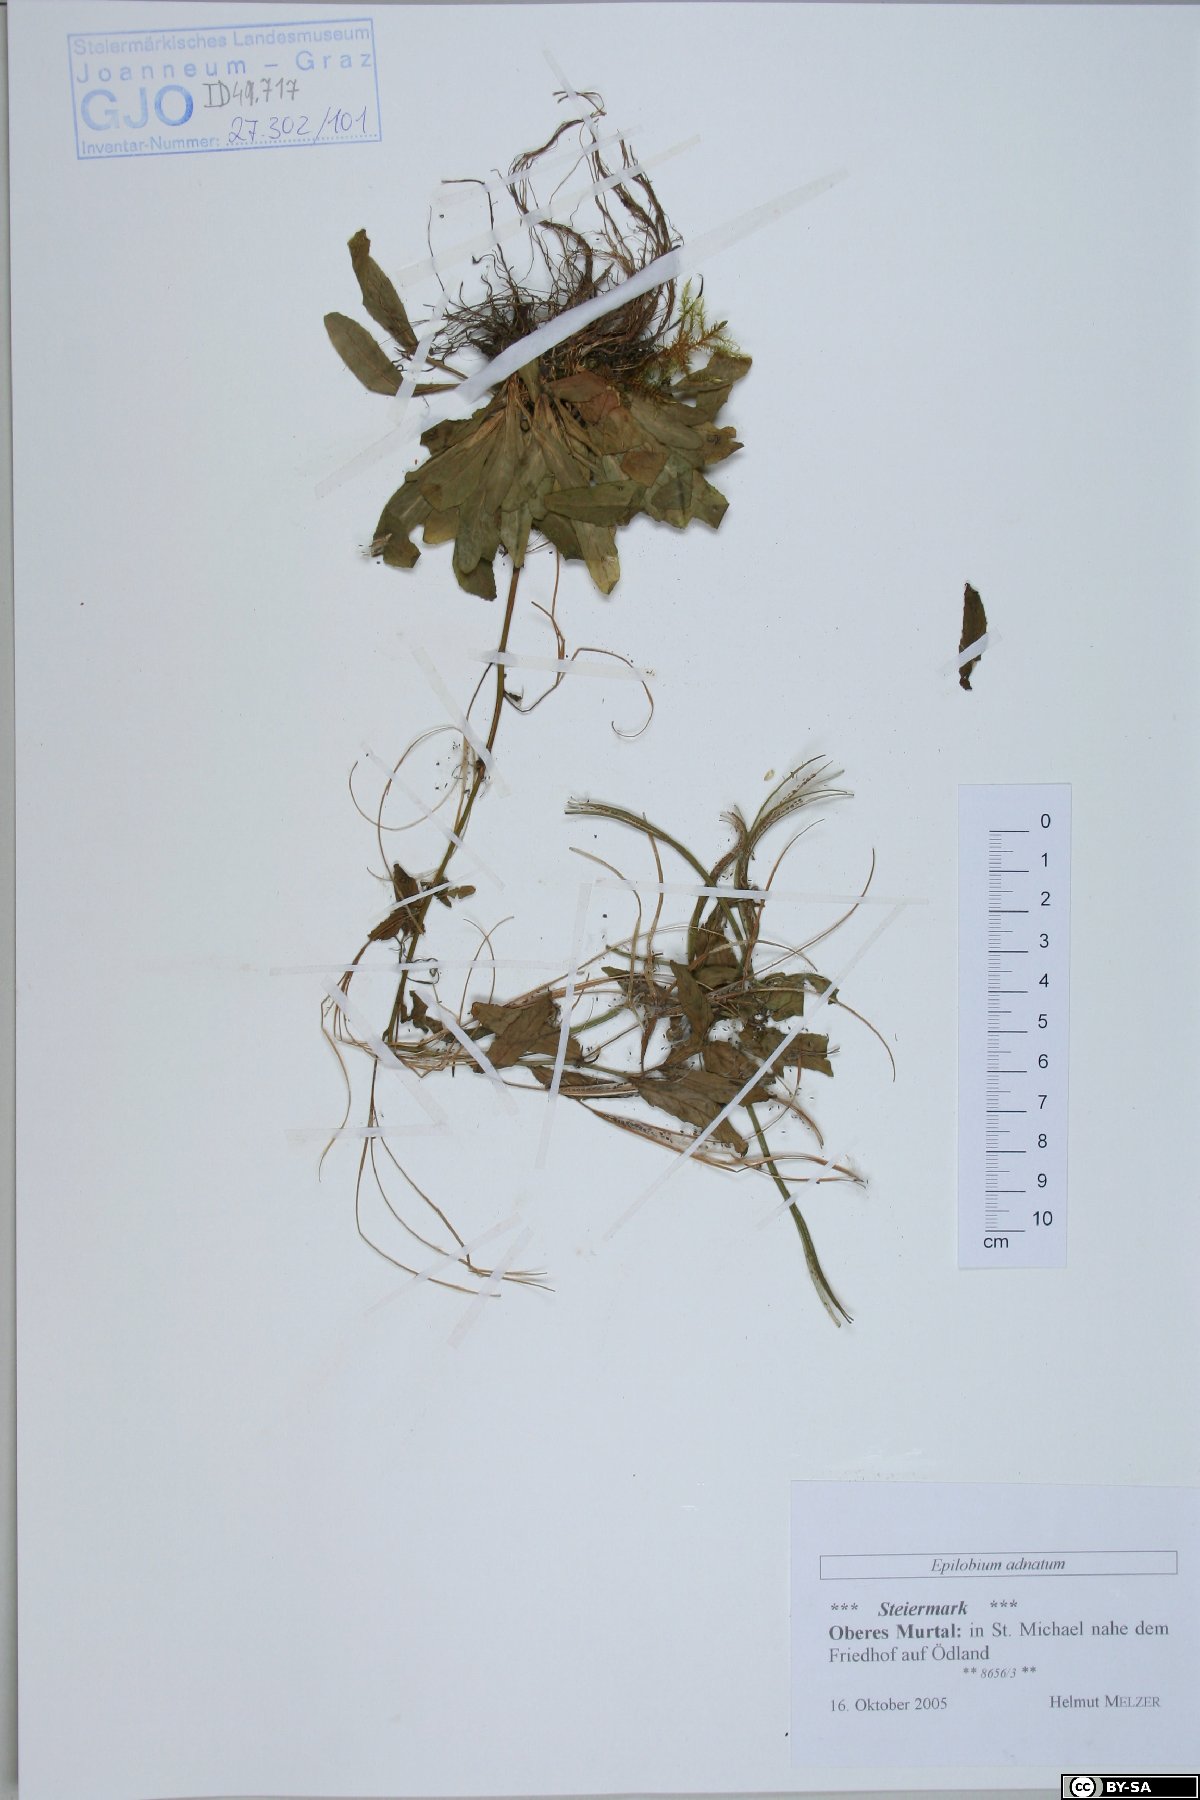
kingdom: Plantae
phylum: Tracheophyta
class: Magnoliopsida
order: Myrtales
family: Onagraceae
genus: Epilobium
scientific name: Epilobium tetragonum
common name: Square-stemmed willowherb
